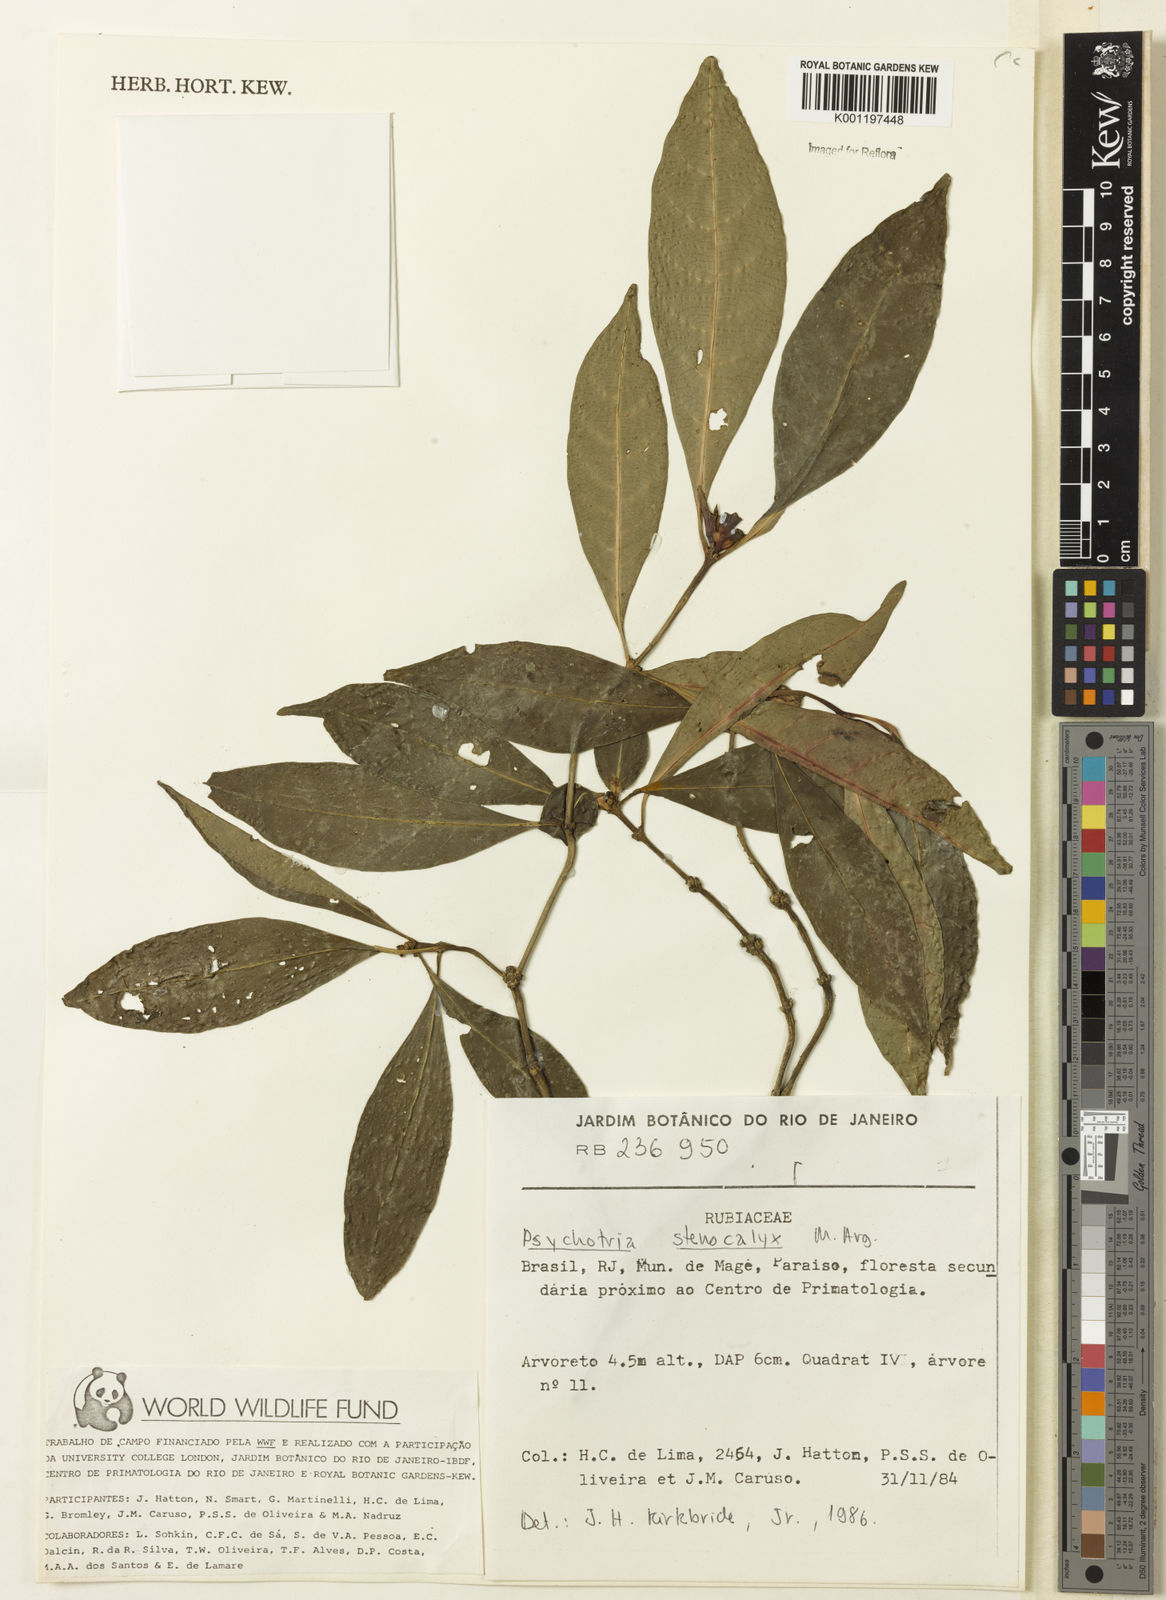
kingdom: Plantae
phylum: Tracheophyta
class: Magnoliopsida
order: Gentianales
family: Rubiaceae
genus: Psychotria
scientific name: Psychotria
